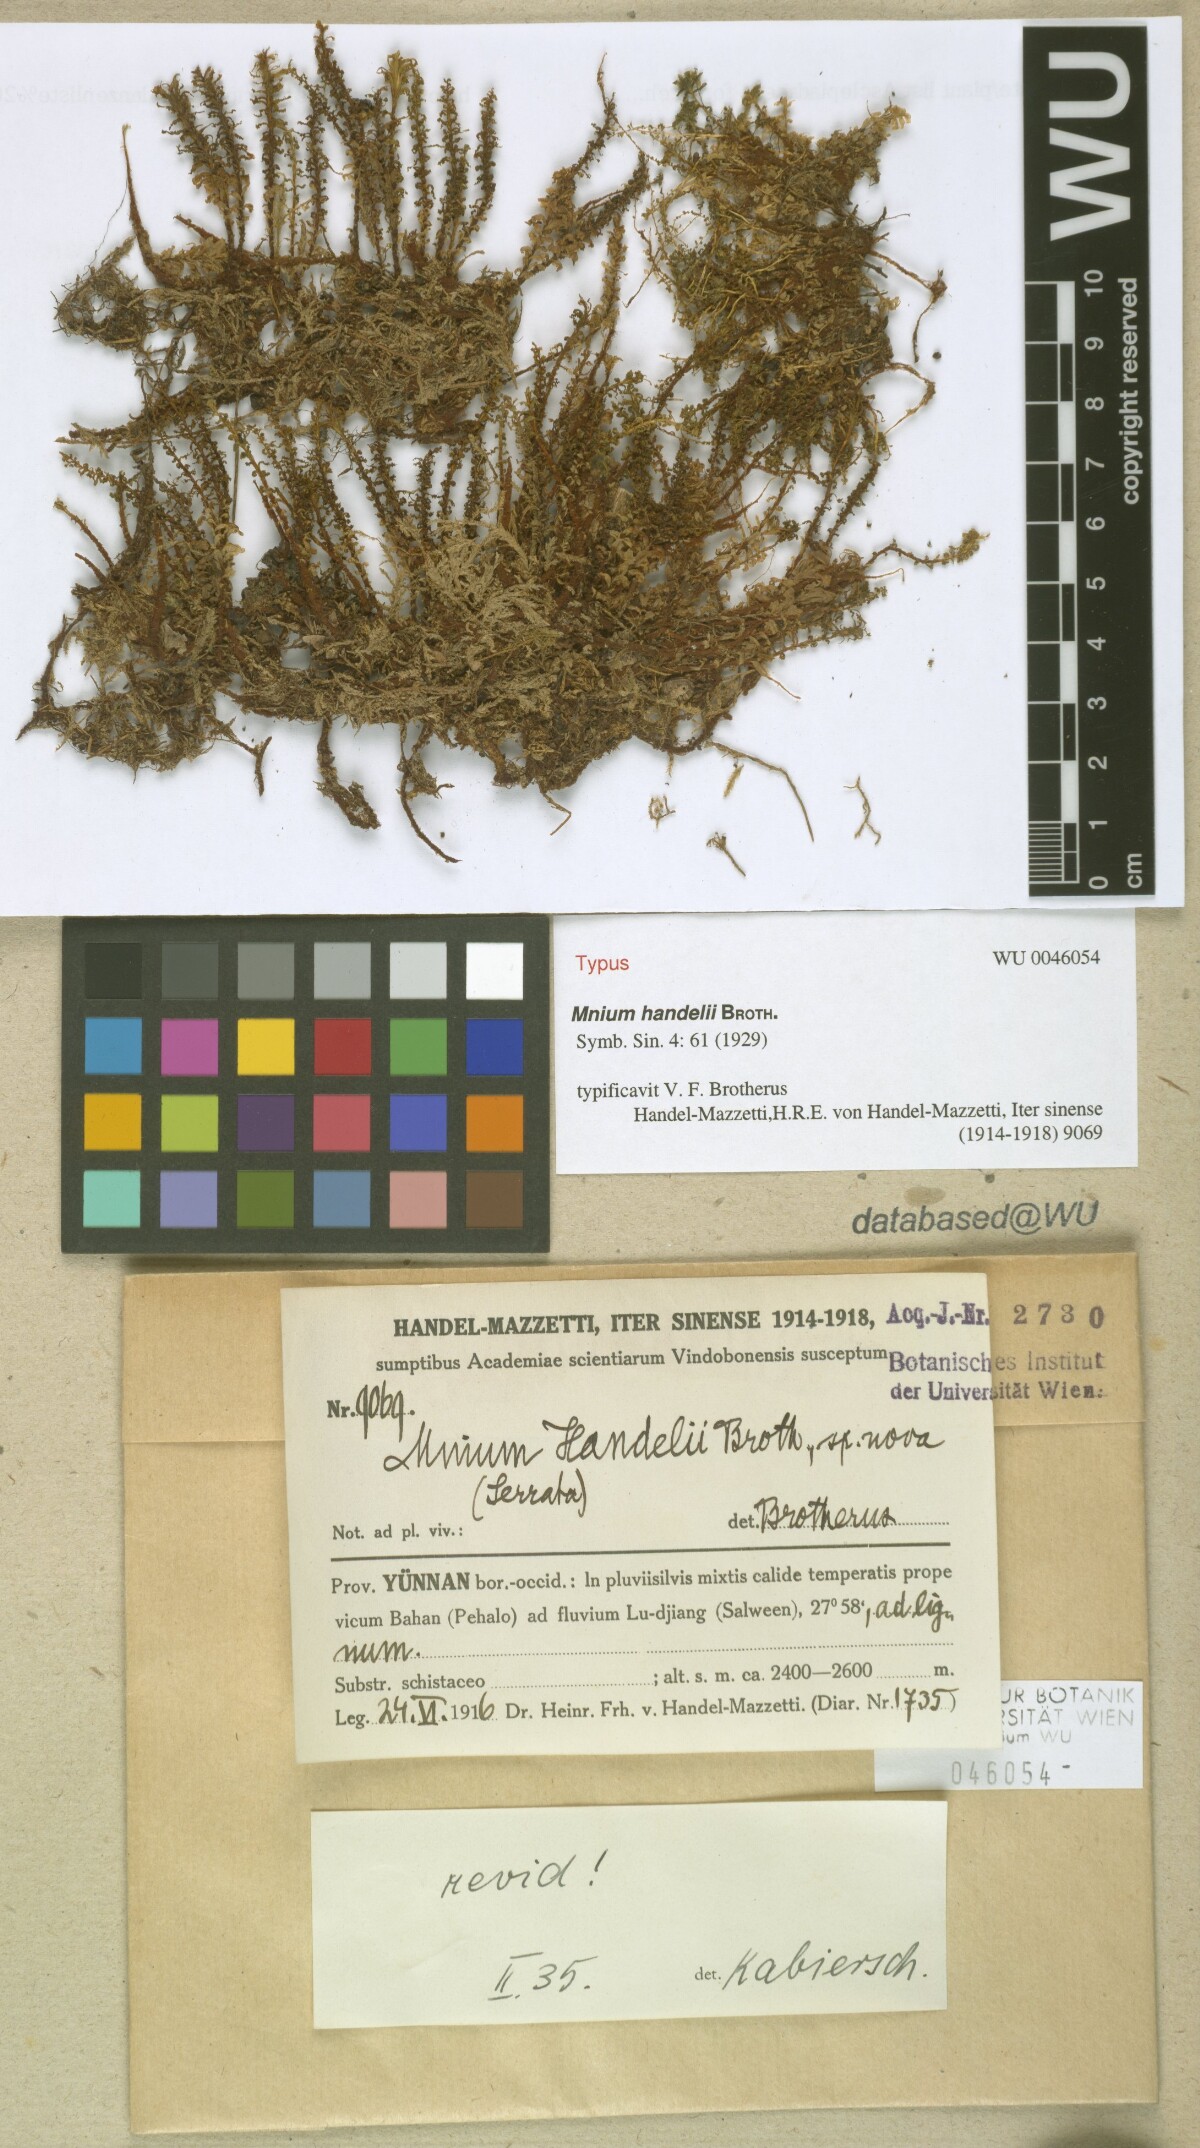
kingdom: Plantae
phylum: Bryophyta
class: Bryopsida
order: Bryales
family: Mniaceae
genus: Orthomnion
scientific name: Orthomnion handelii
